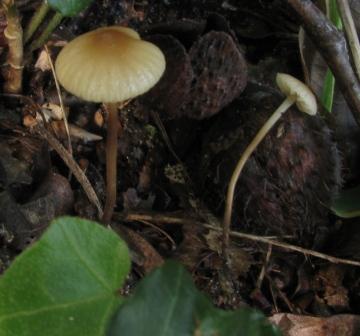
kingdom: Fungi
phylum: Basidiomycota
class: Agaricomycetes
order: Agaricales
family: Marasmiaceae
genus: Marasmius
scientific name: Marasmius torquescens
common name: filtfodet bruskhat
